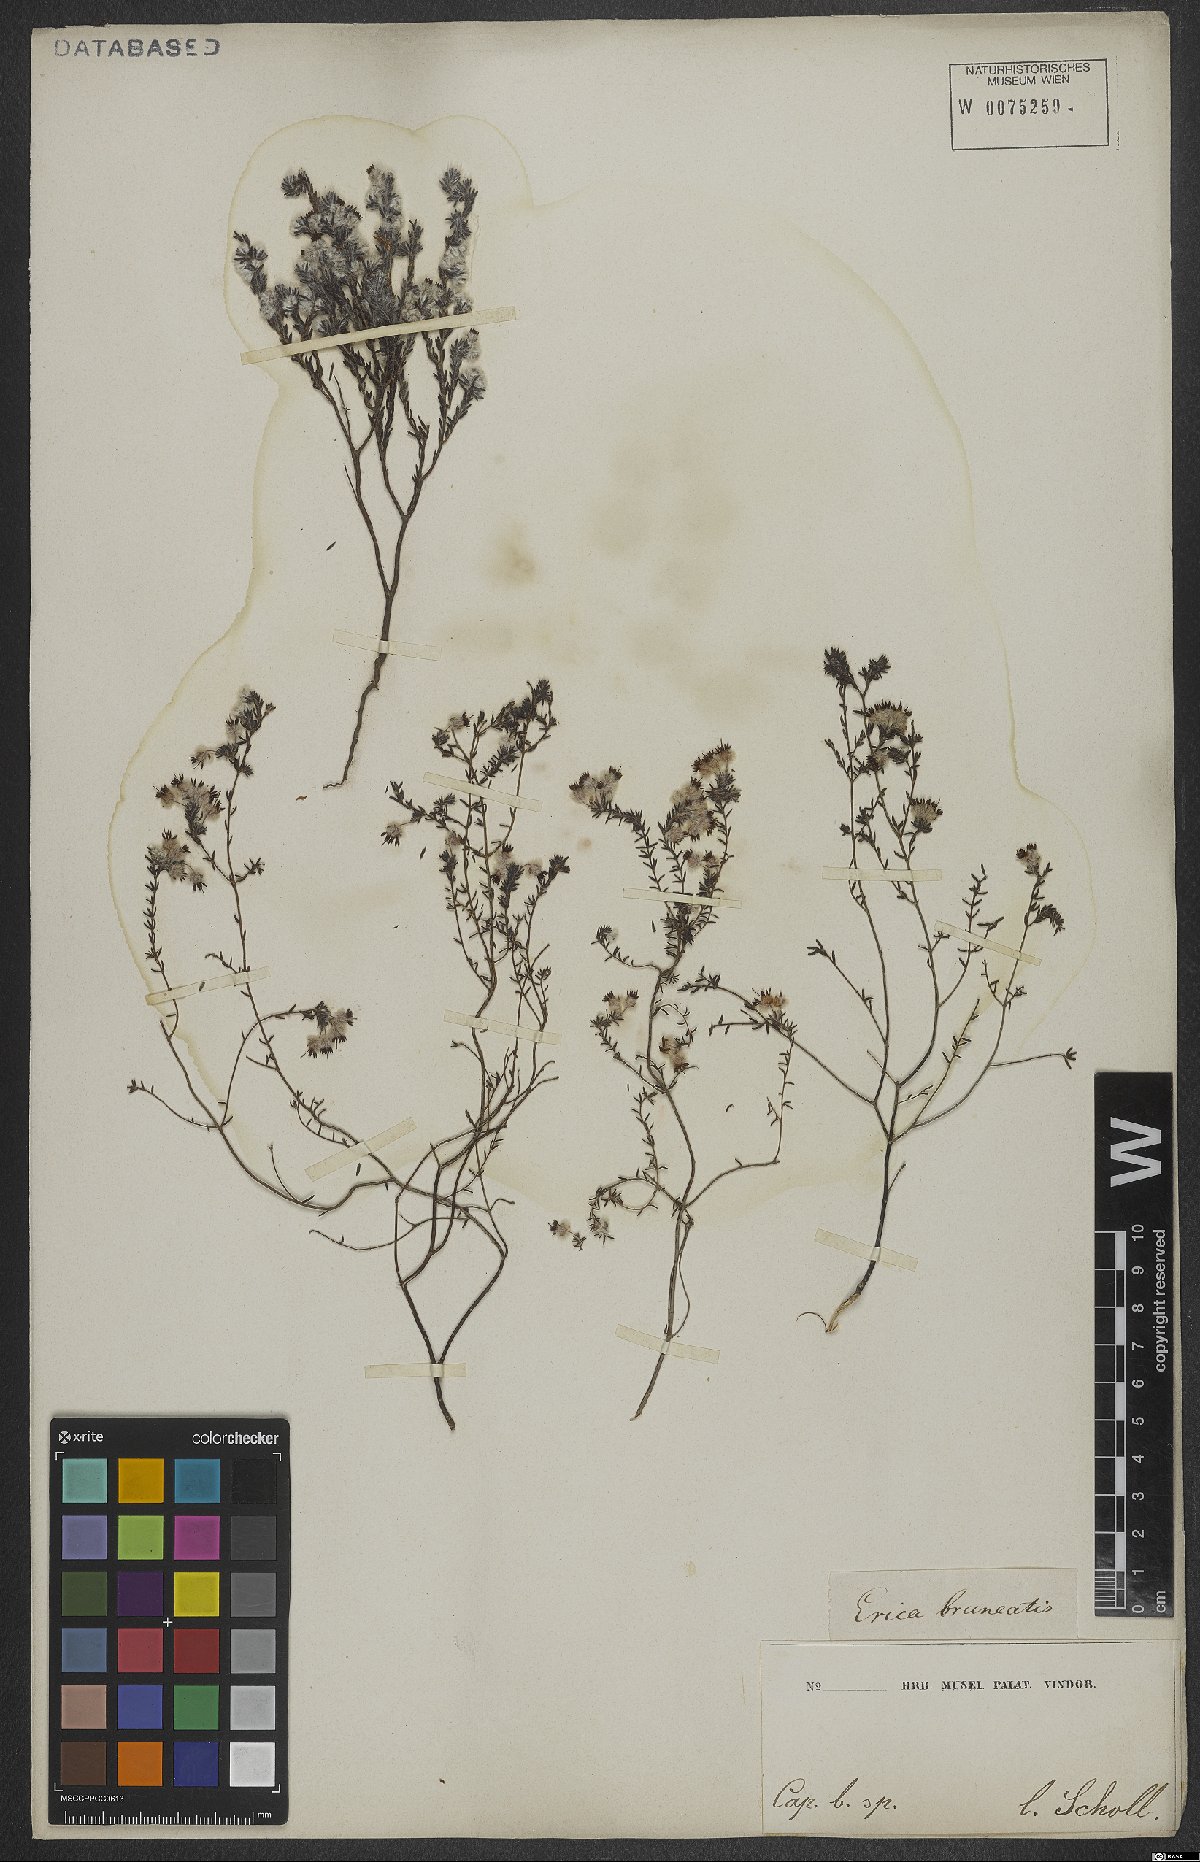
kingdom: Plantae
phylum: Tracheophyta
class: Magnoliopsida
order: Ericales
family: Ericaceae
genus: Erica
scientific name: Erica bruniades
